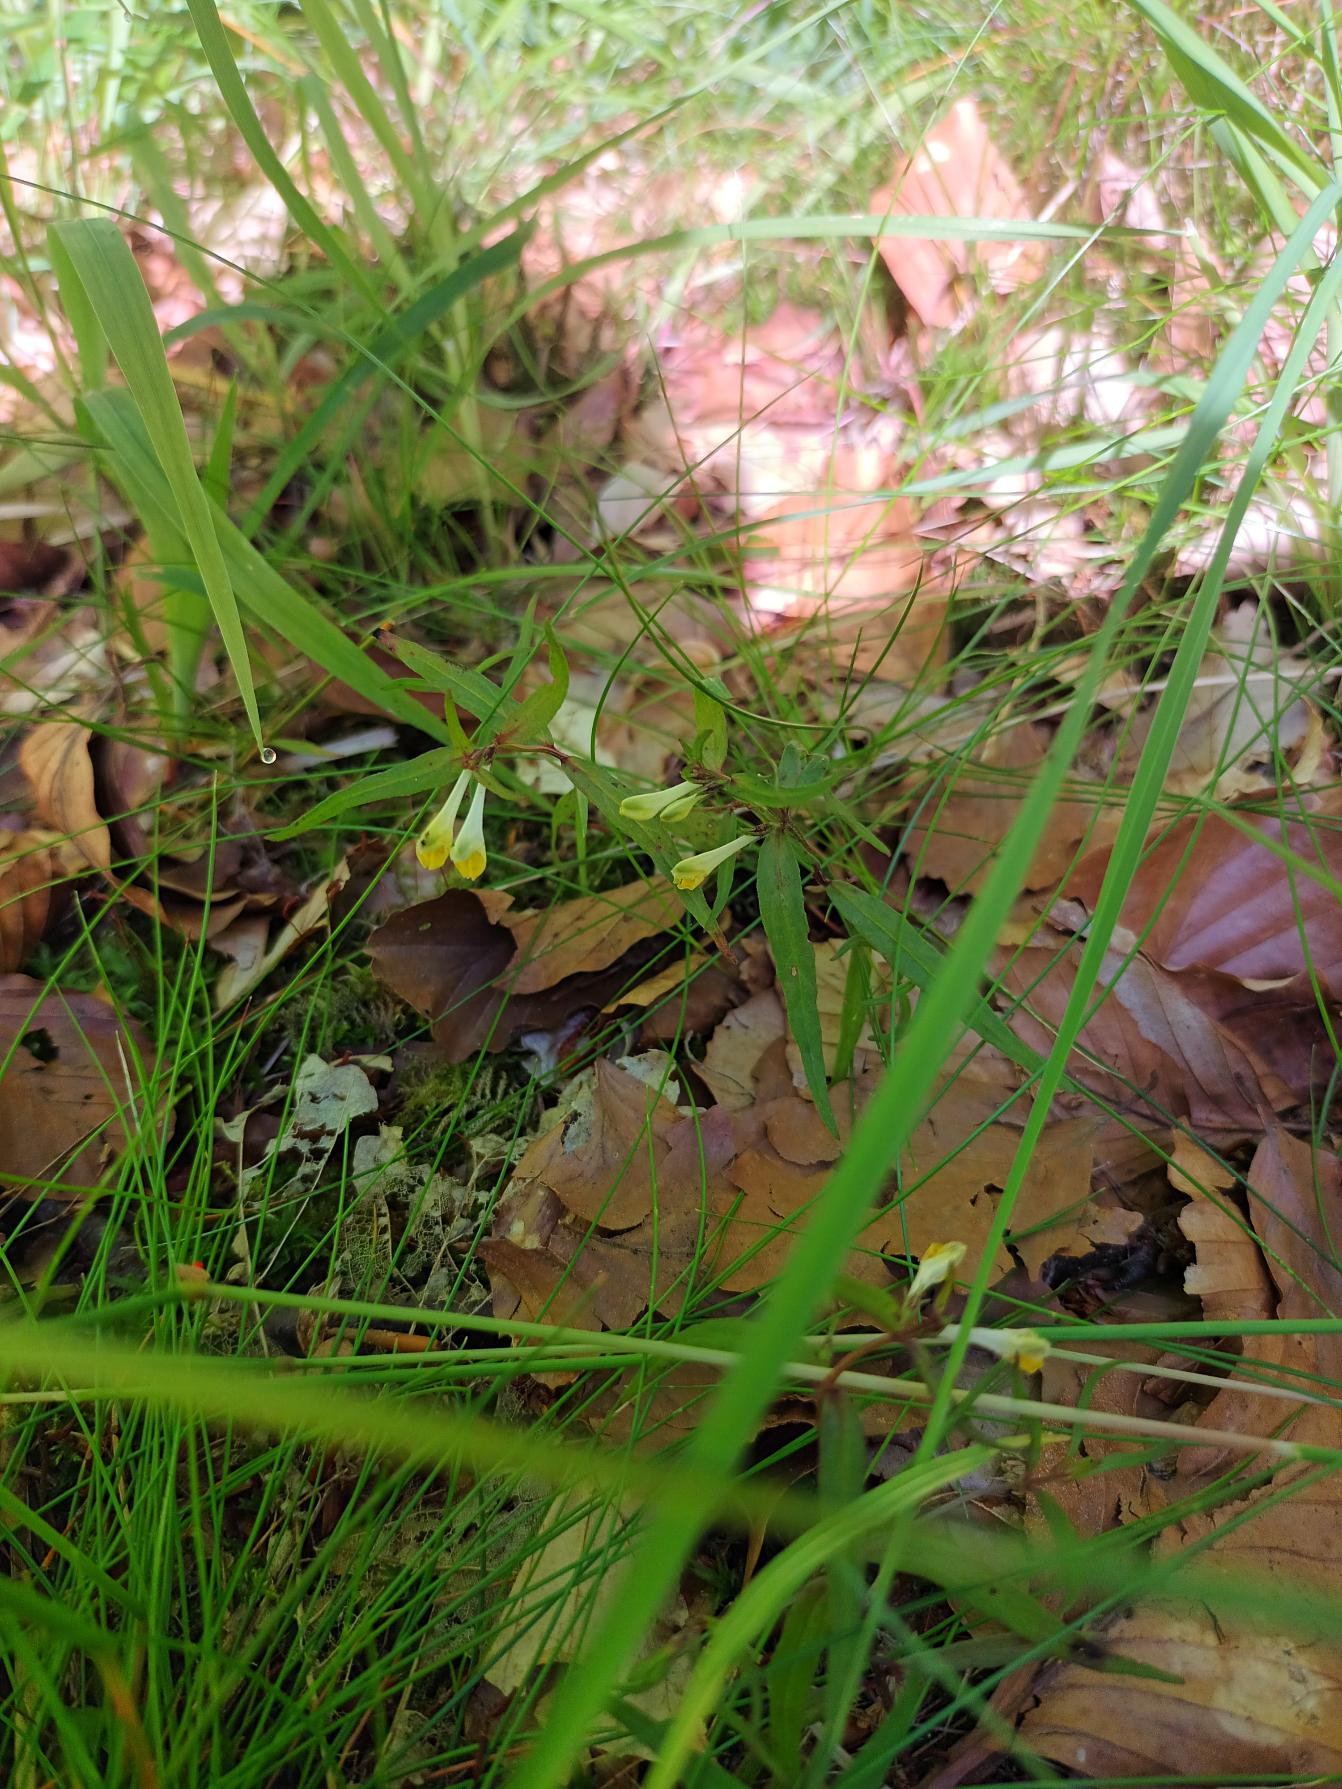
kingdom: Plantae
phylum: Tracheophyta
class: Magnoliopsida
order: Lamiales
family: Orobanchaceae
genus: Melampyrum
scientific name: Melampyrum pratense
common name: Almindelig kohvede
